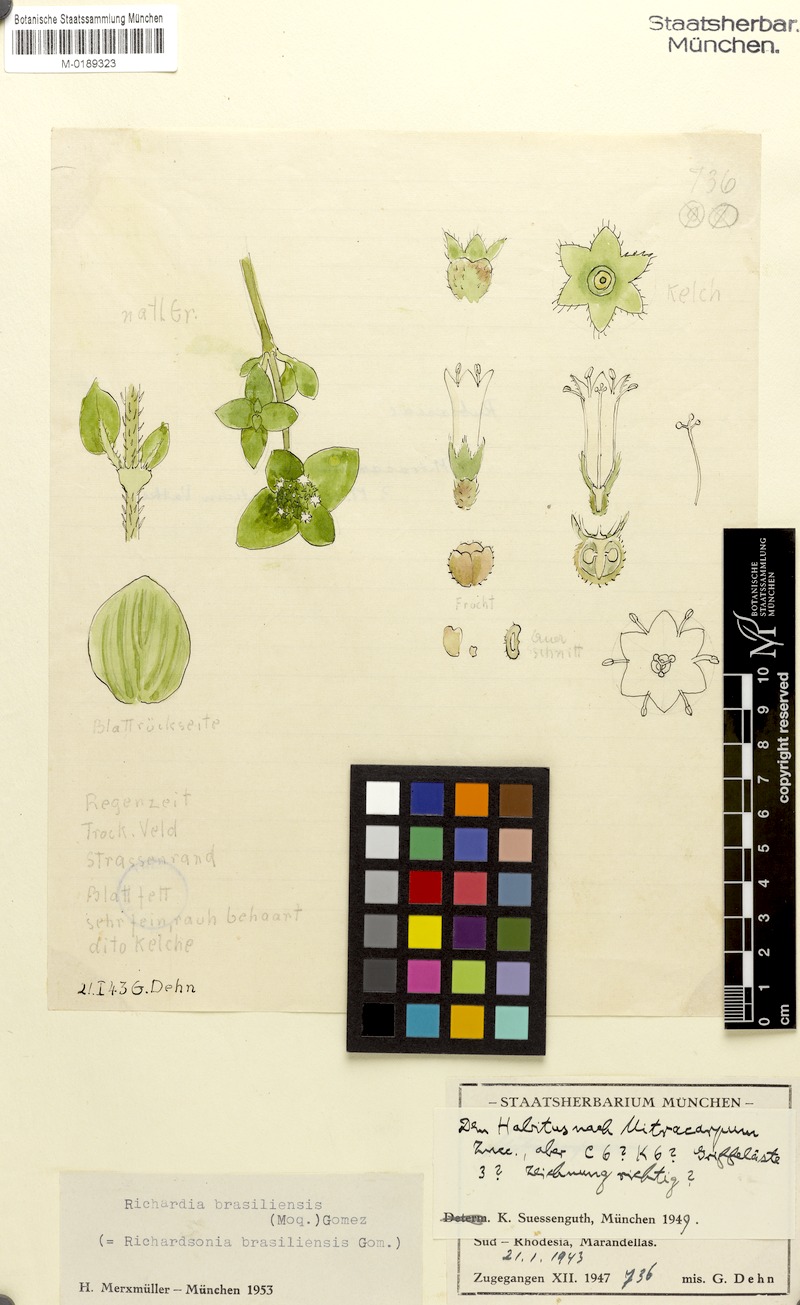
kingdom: Plantae
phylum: Tracheophyta
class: Magnoliopsida
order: Gentianales
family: Rubiaceae
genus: Richardia
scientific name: Richardia brasiliensis
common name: Tropical mexican clover
